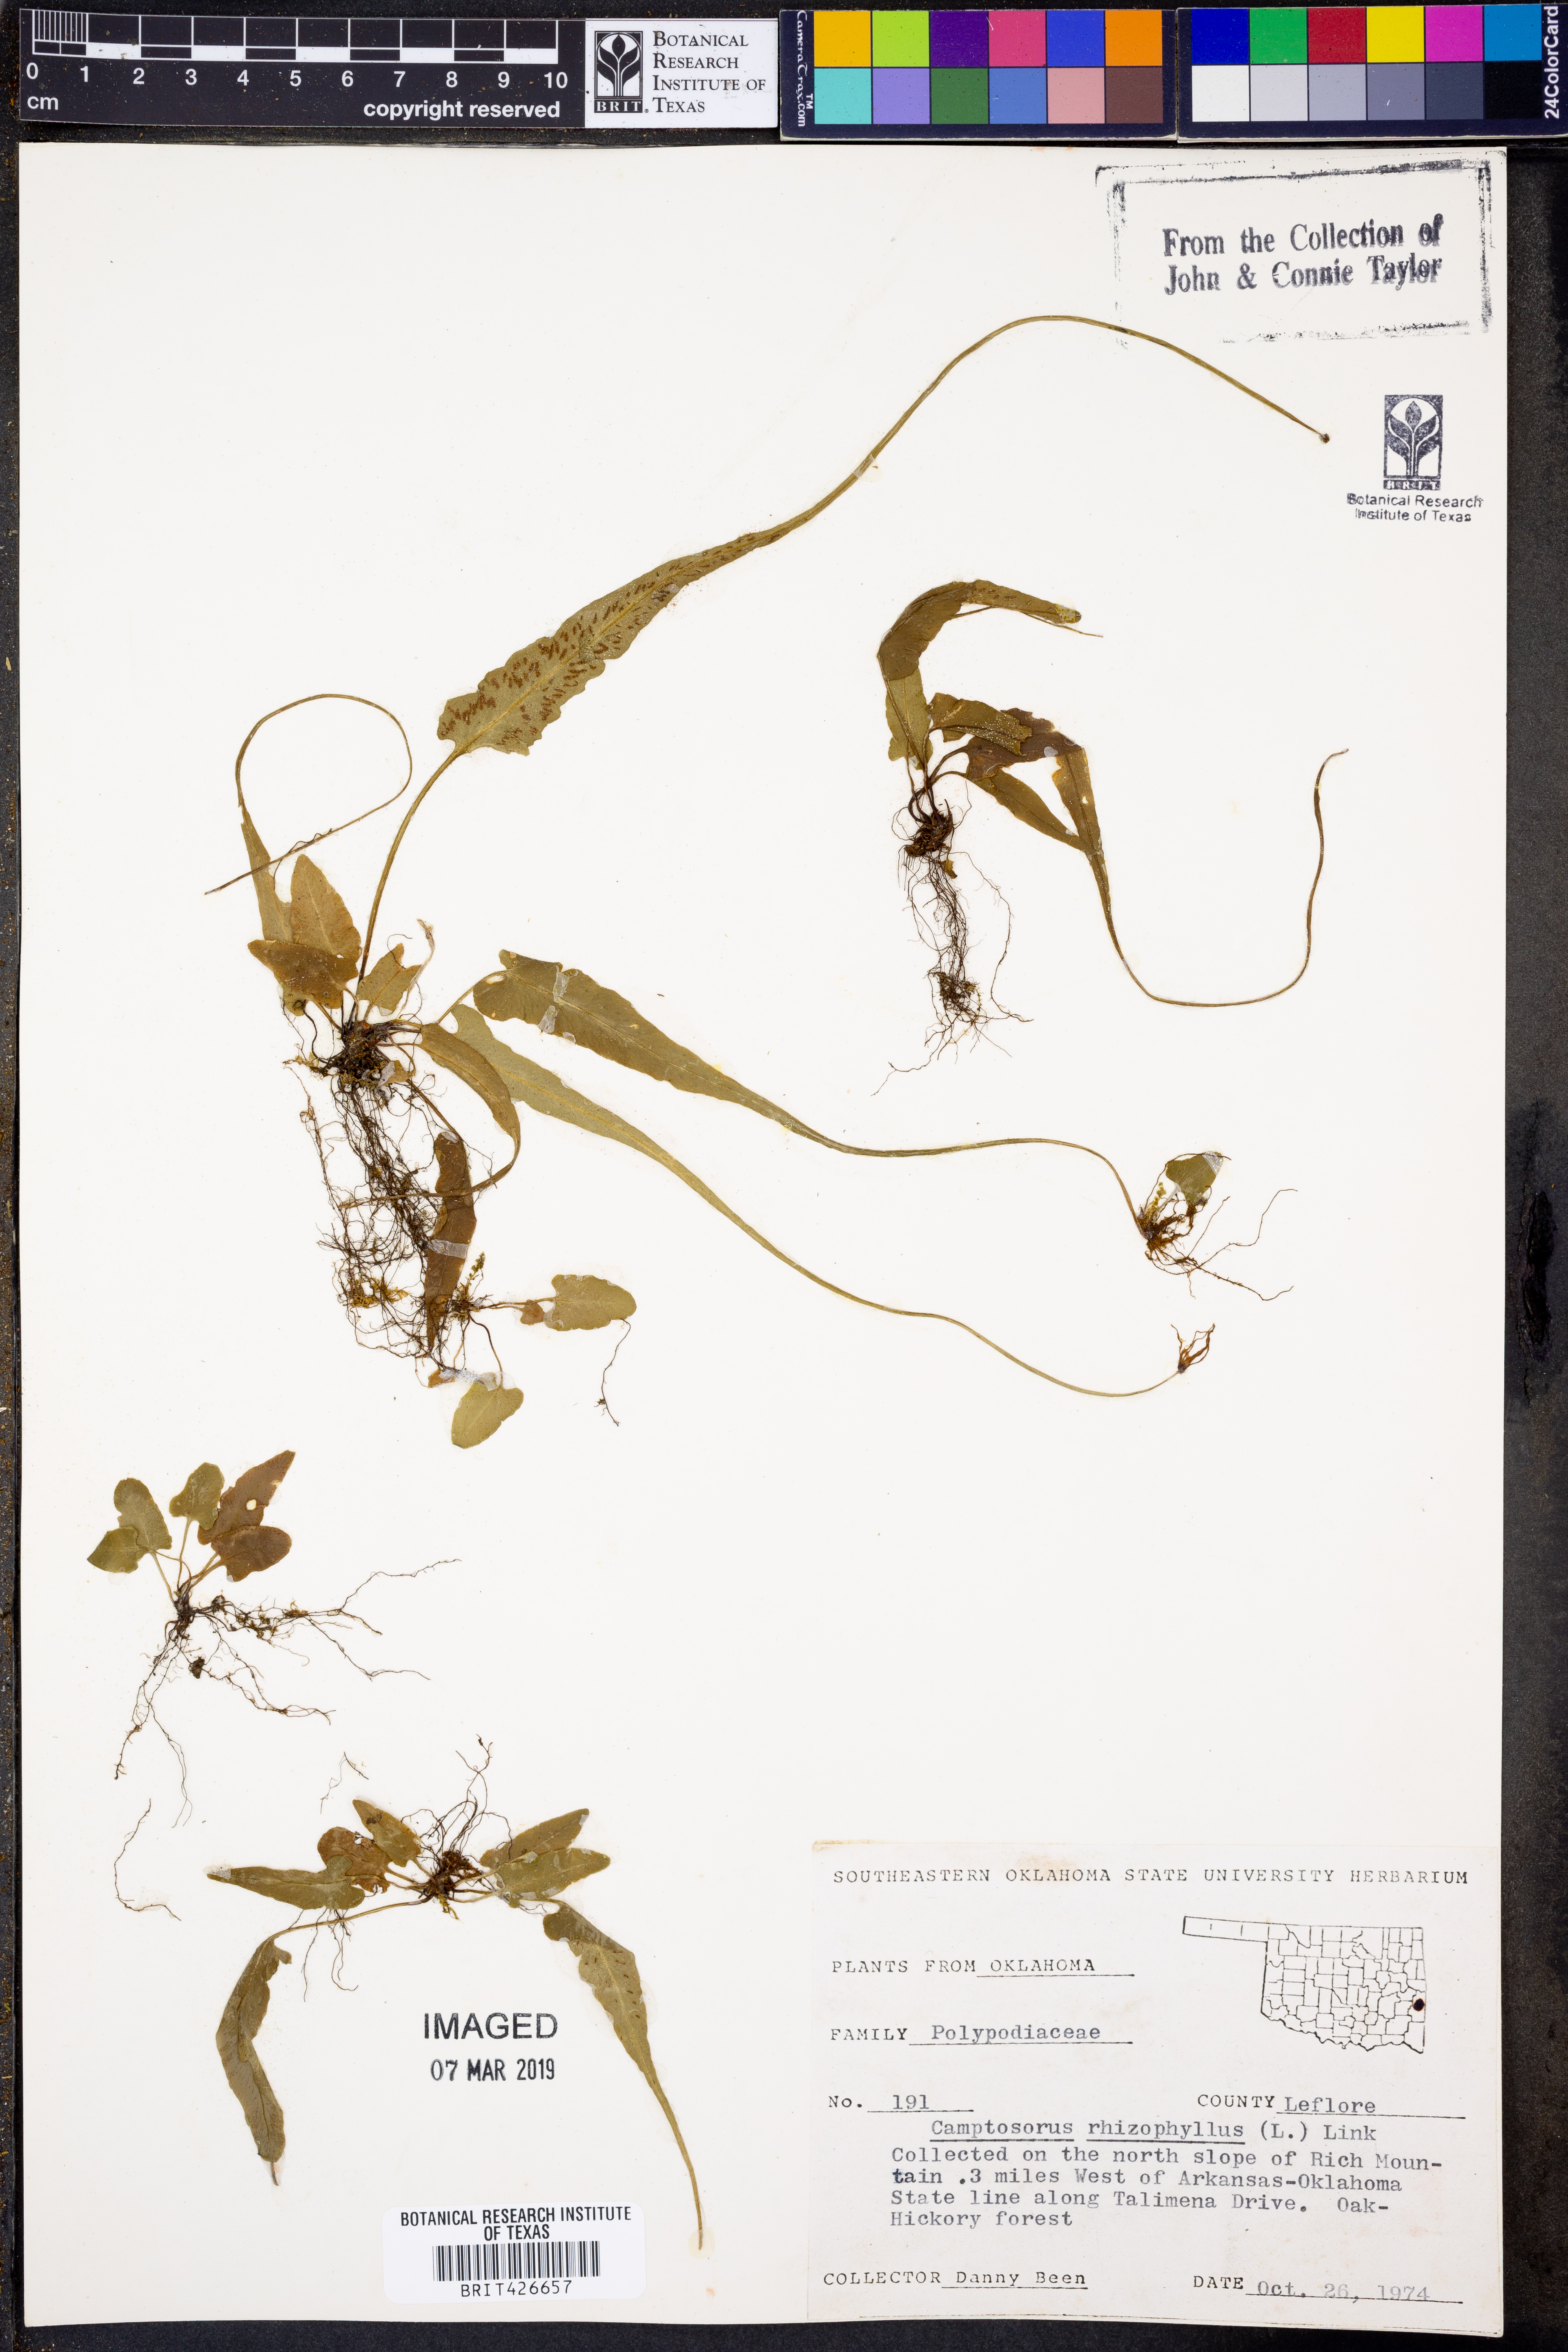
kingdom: Plantae
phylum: Tracheophyta
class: Polypodiopsida
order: Polypodiales
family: Aspleniaceae
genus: Asplenium
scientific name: Asplenium rhizophyllum
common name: Walking fern
